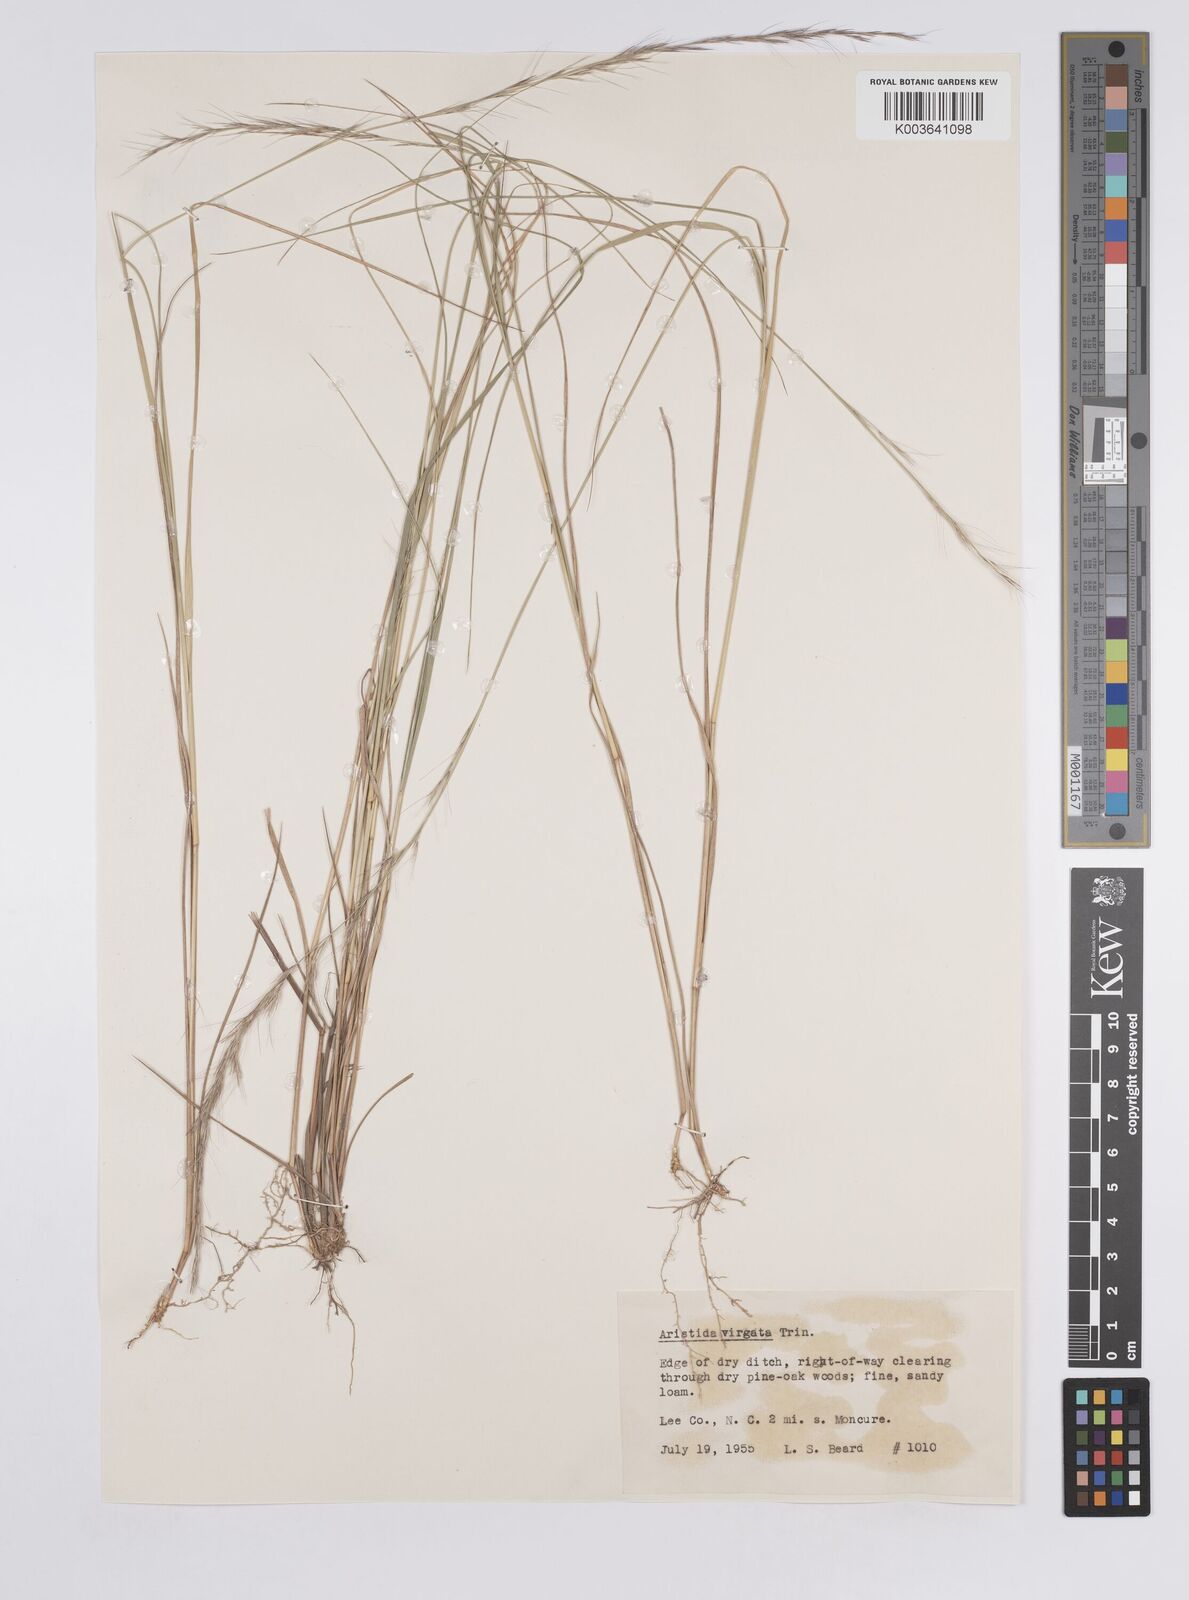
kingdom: Plantae
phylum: Tracheophyta
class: Liliopsida
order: Poales
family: Poaceae
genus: Aristida
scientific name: Aristida purpurascens
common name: Arrow-feather
